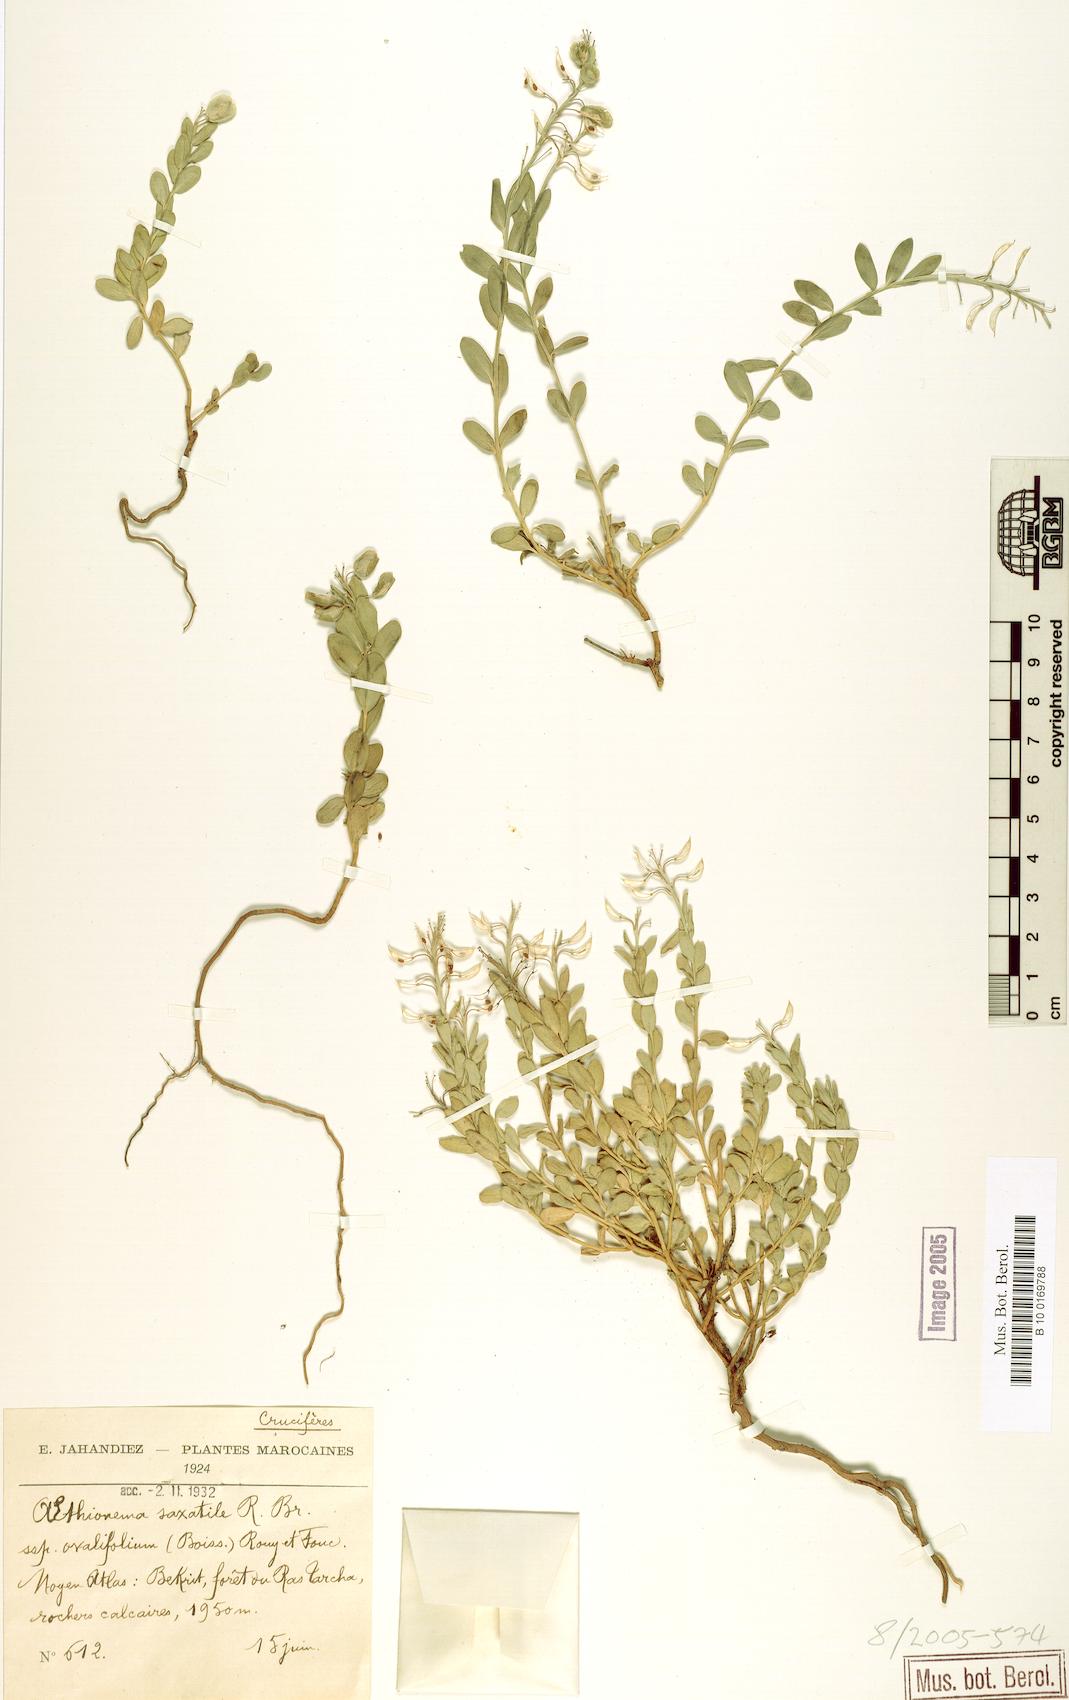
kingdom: Plantae
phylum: Tracheophyta
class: Magnoliopsida
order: Brassicales
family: Brassicaceae
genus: Aethionema
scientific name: Aethionema saxatile
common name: Burnt candytuft
